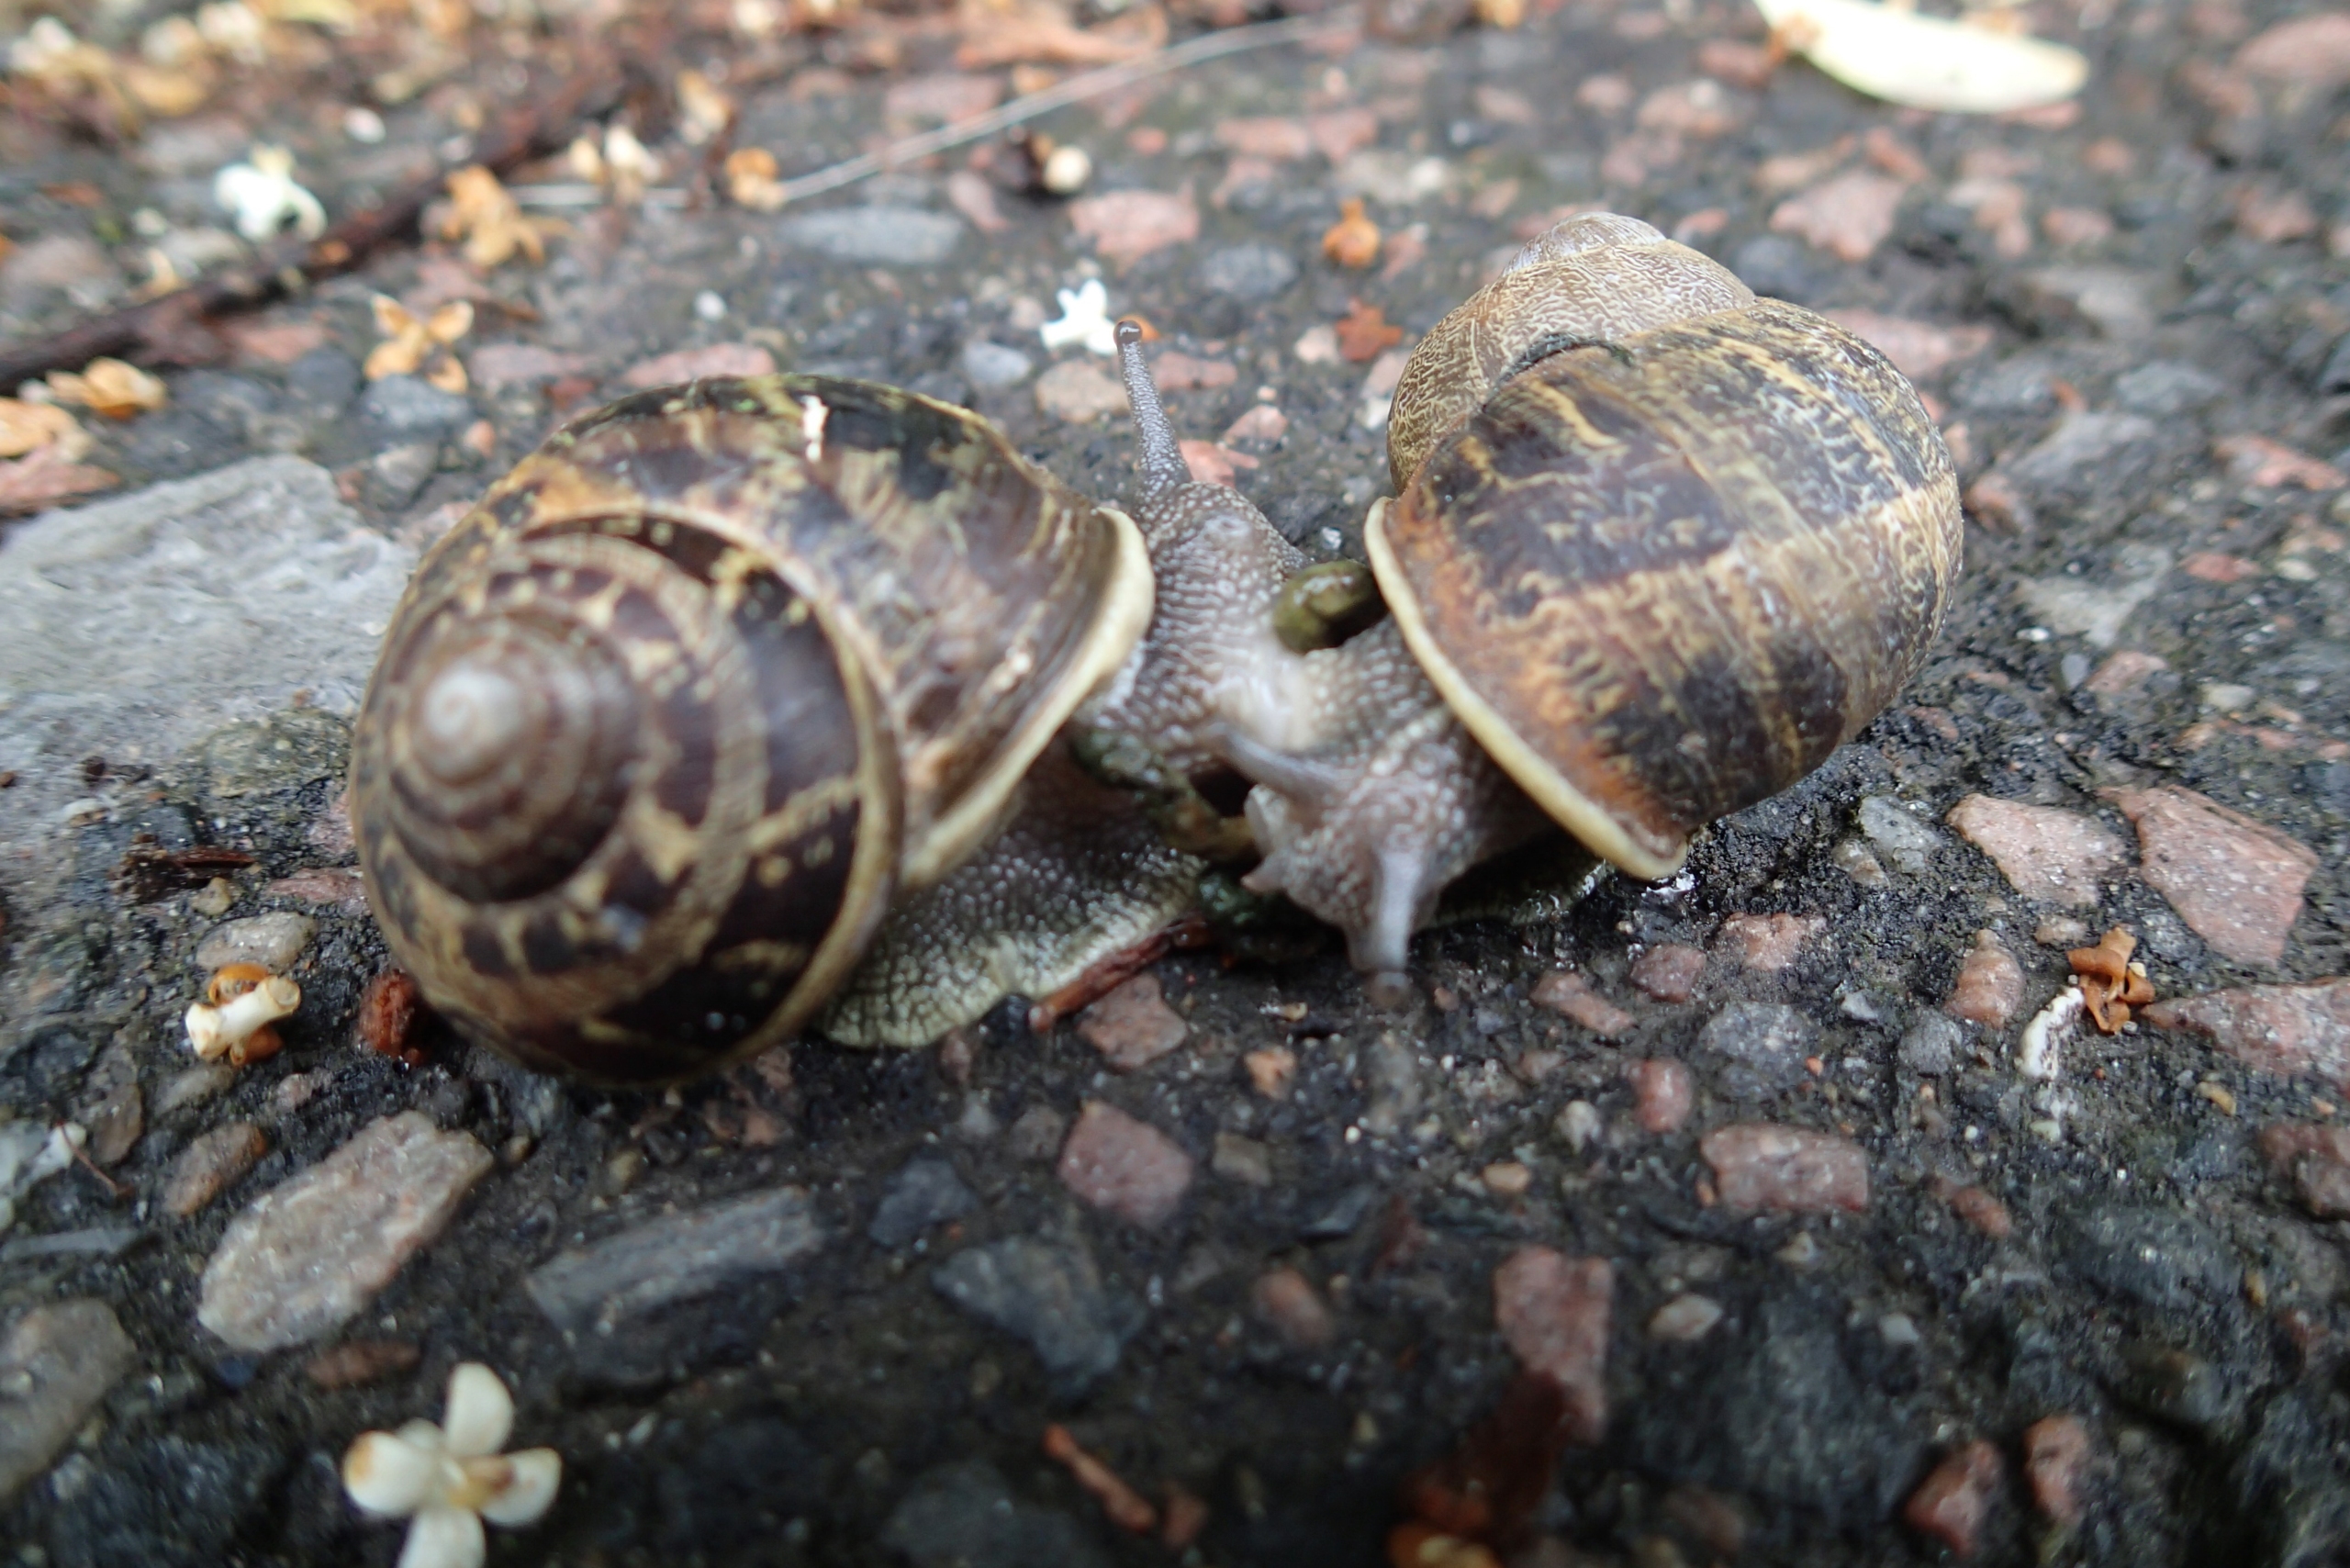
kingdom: Animalia
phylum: Mollusca
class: Gastropoda
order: Stylommatophora
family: Helicidae
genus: Cornu
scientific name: Cornu aspersum
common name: Plettet voldsnegl
